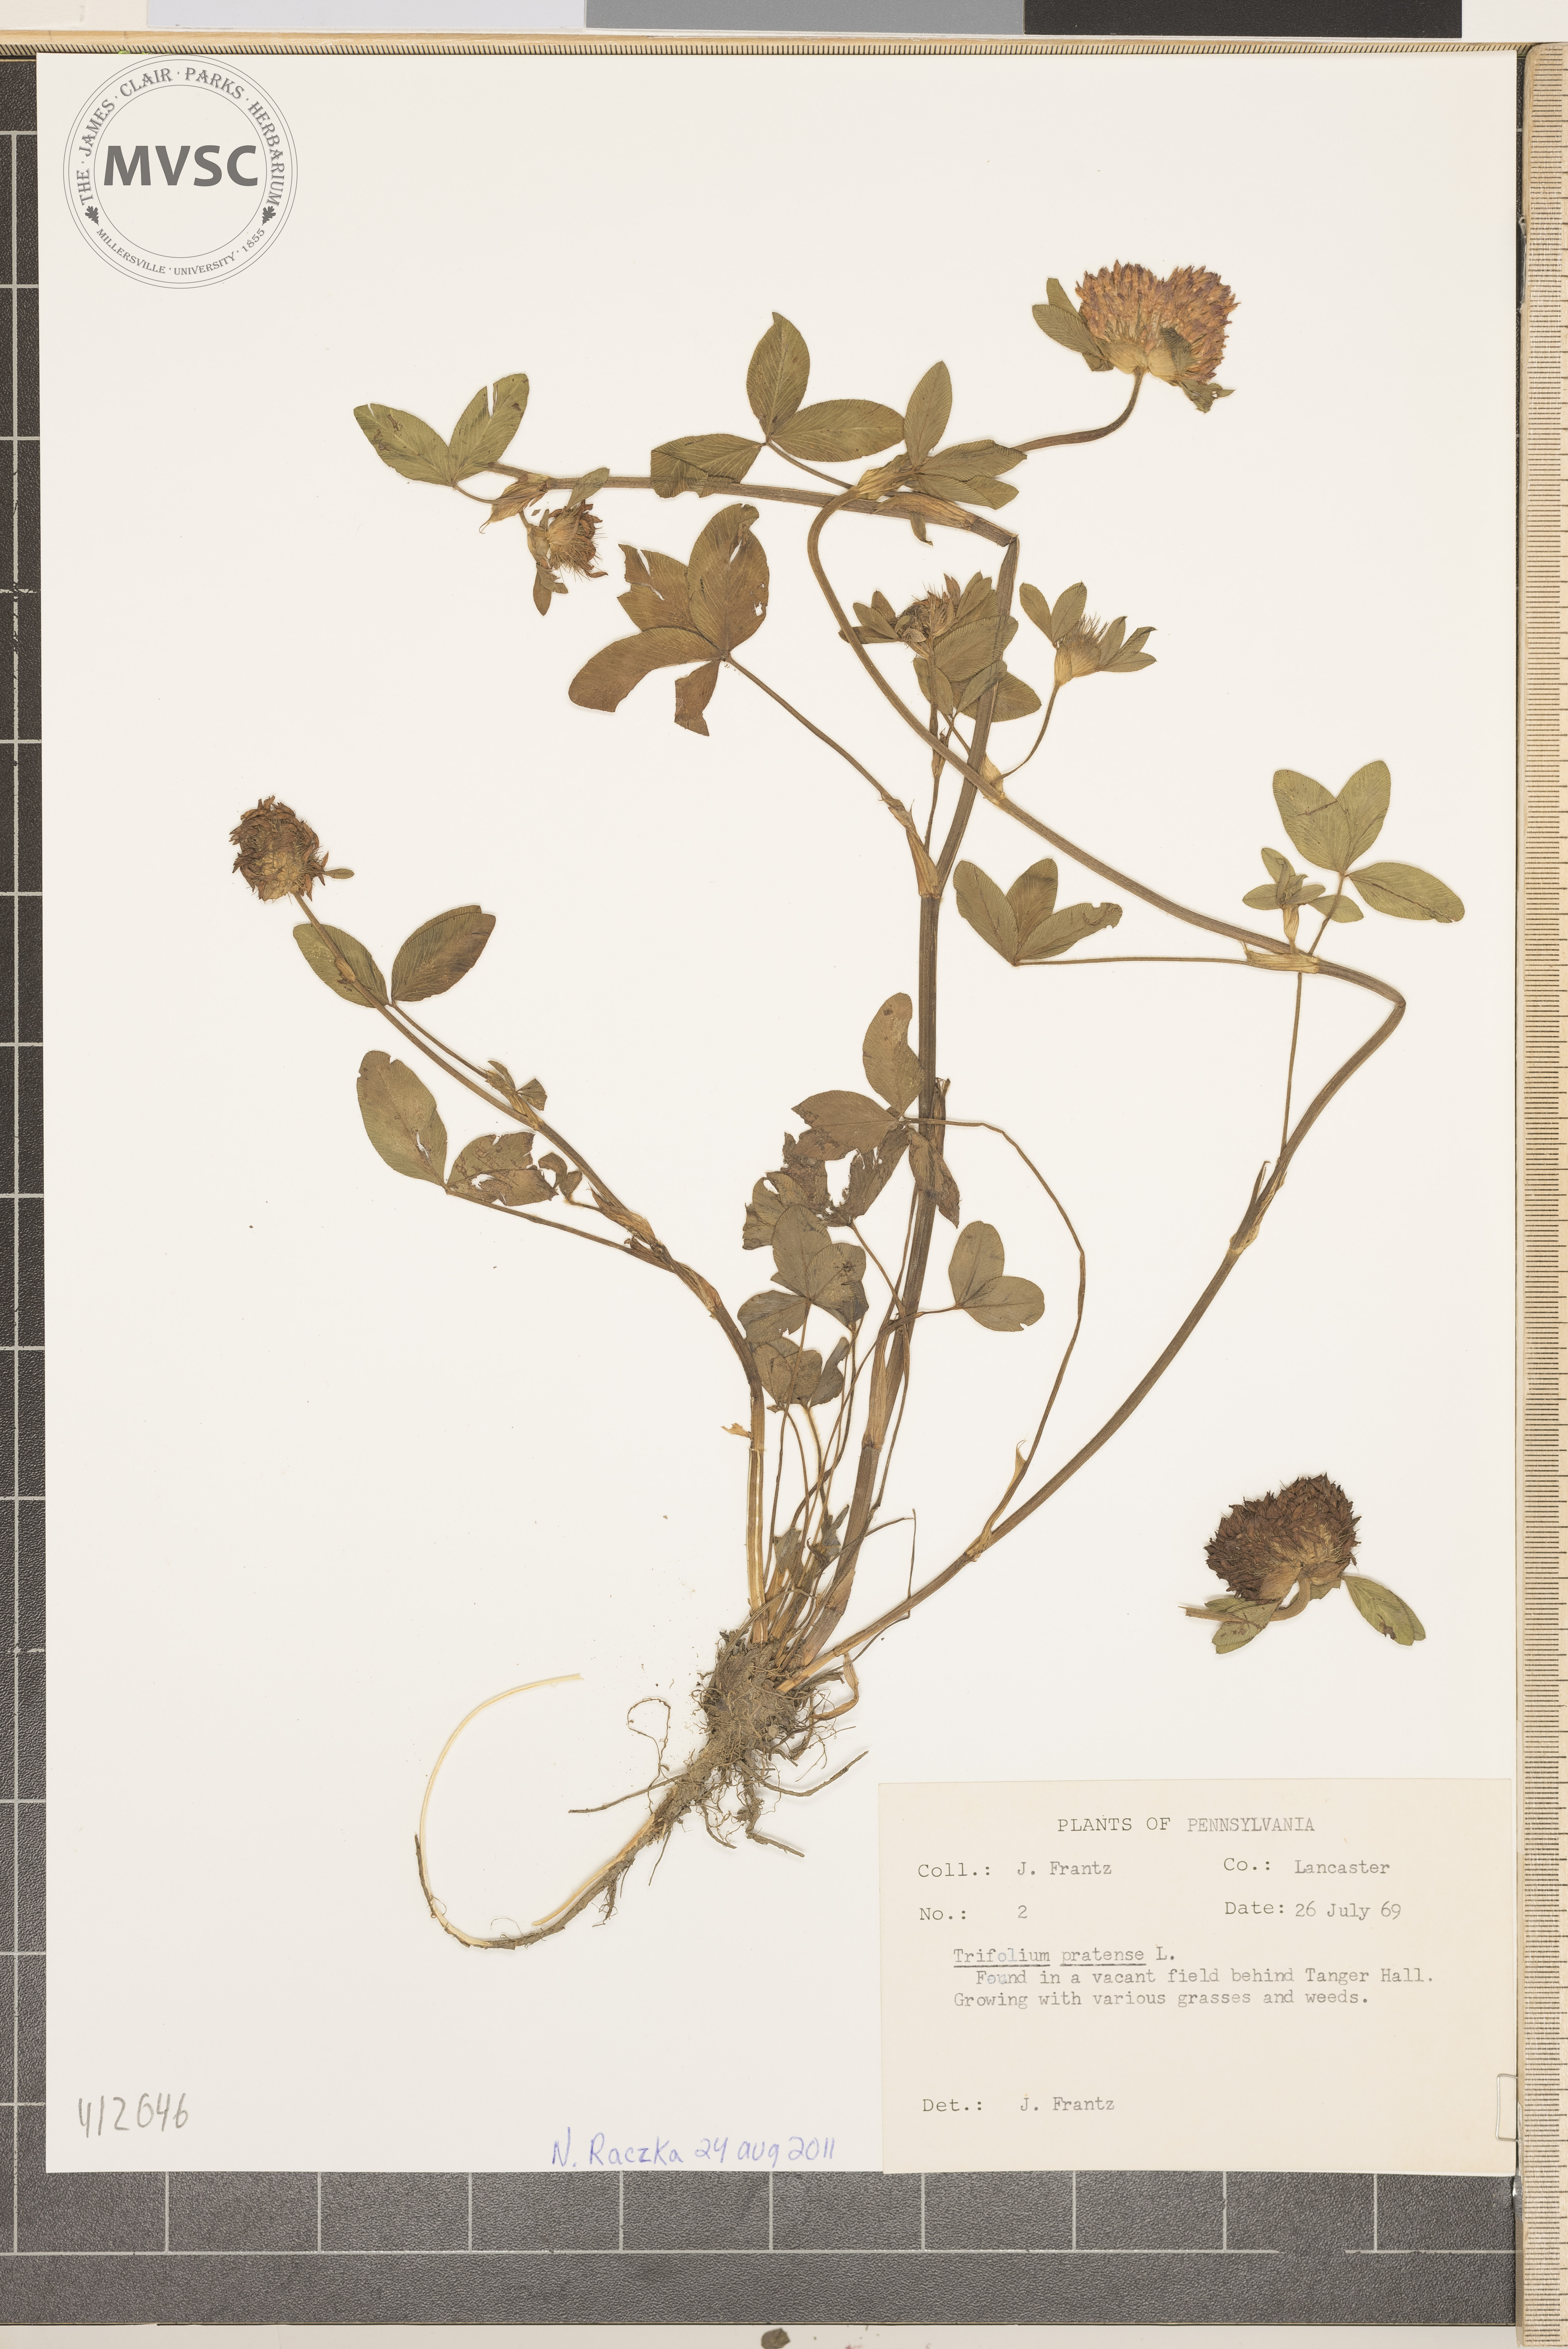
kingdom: Plantae
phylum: Tracheophyta
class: Magnoliopsida
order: Fabales
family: Fabaceae
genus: Trifolium
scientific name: Trifolium pratense
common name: Red clover
